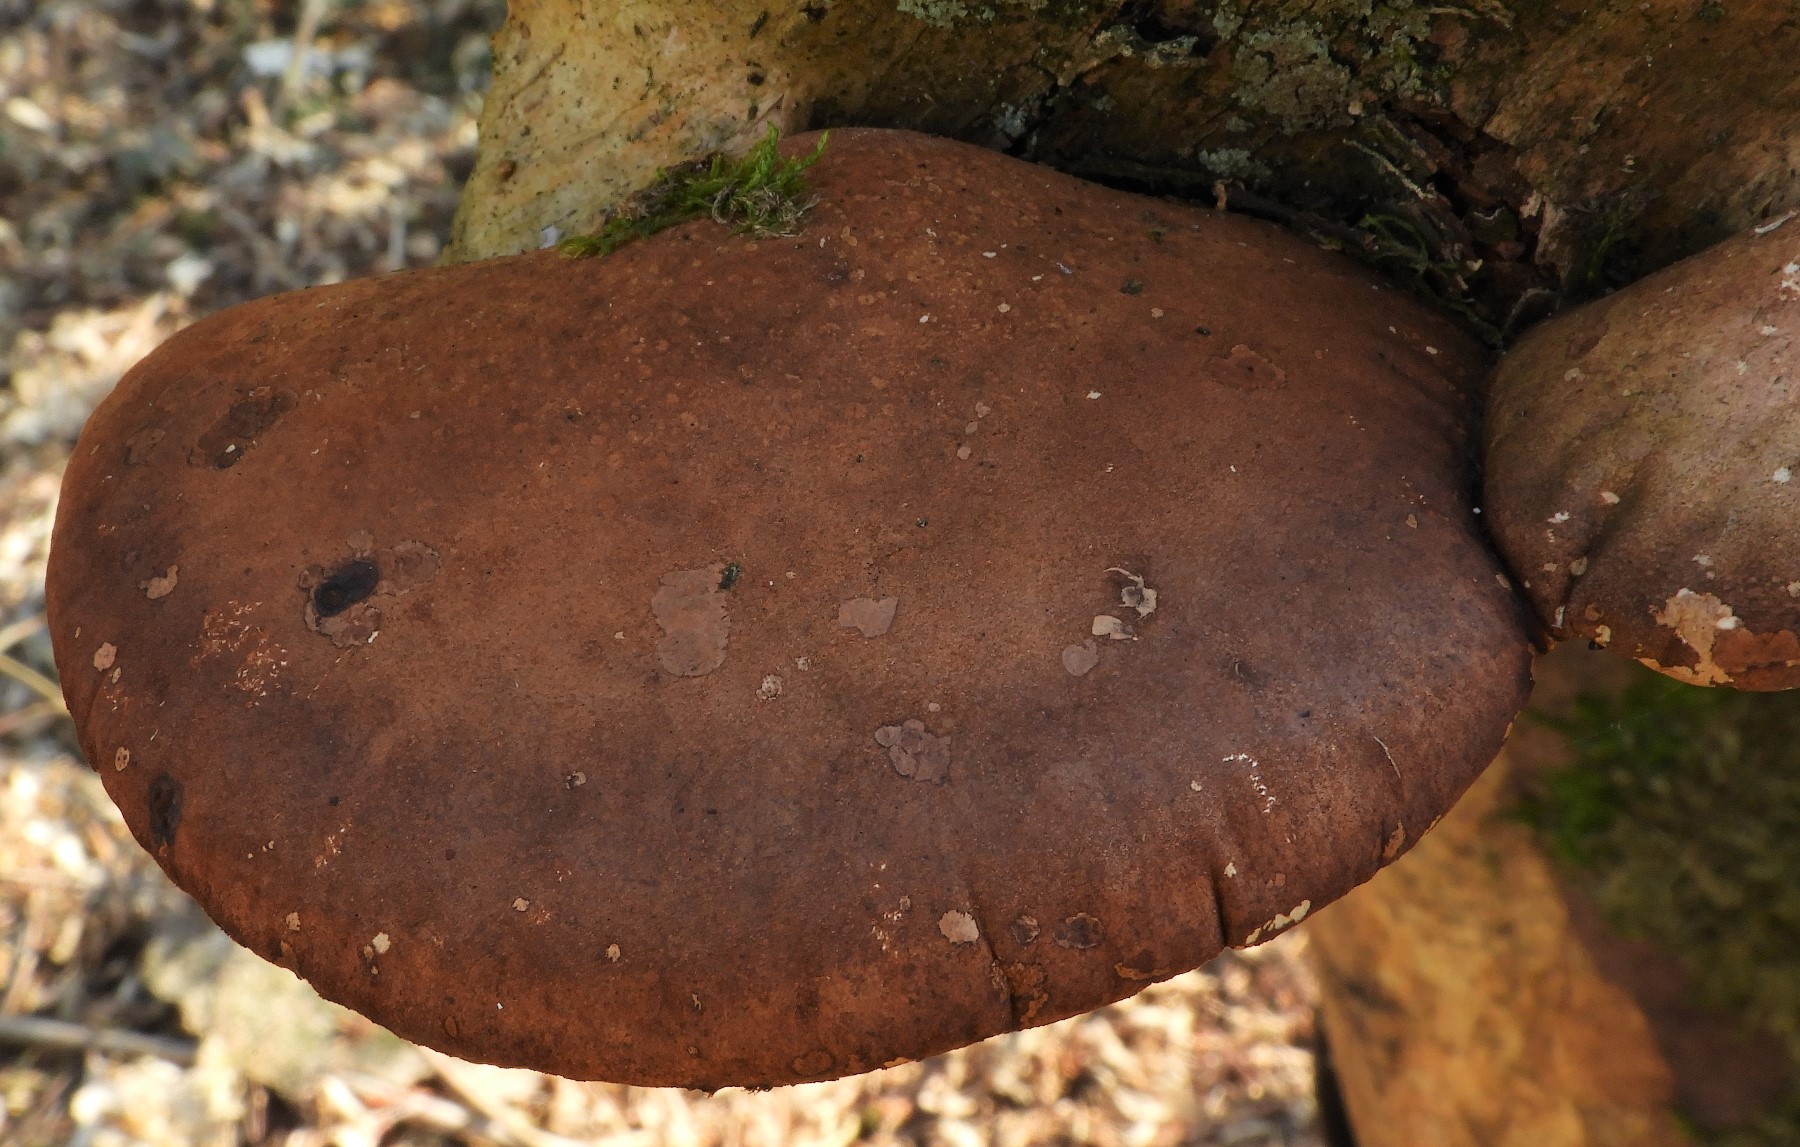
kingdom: Fungi
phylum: Basidiomycota
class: Agaricomycetes
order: Polyporales
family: Fomitopsidaceae
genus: Fomitopsis
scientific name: Fomitopsis betulina
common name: birkeporesvamp
